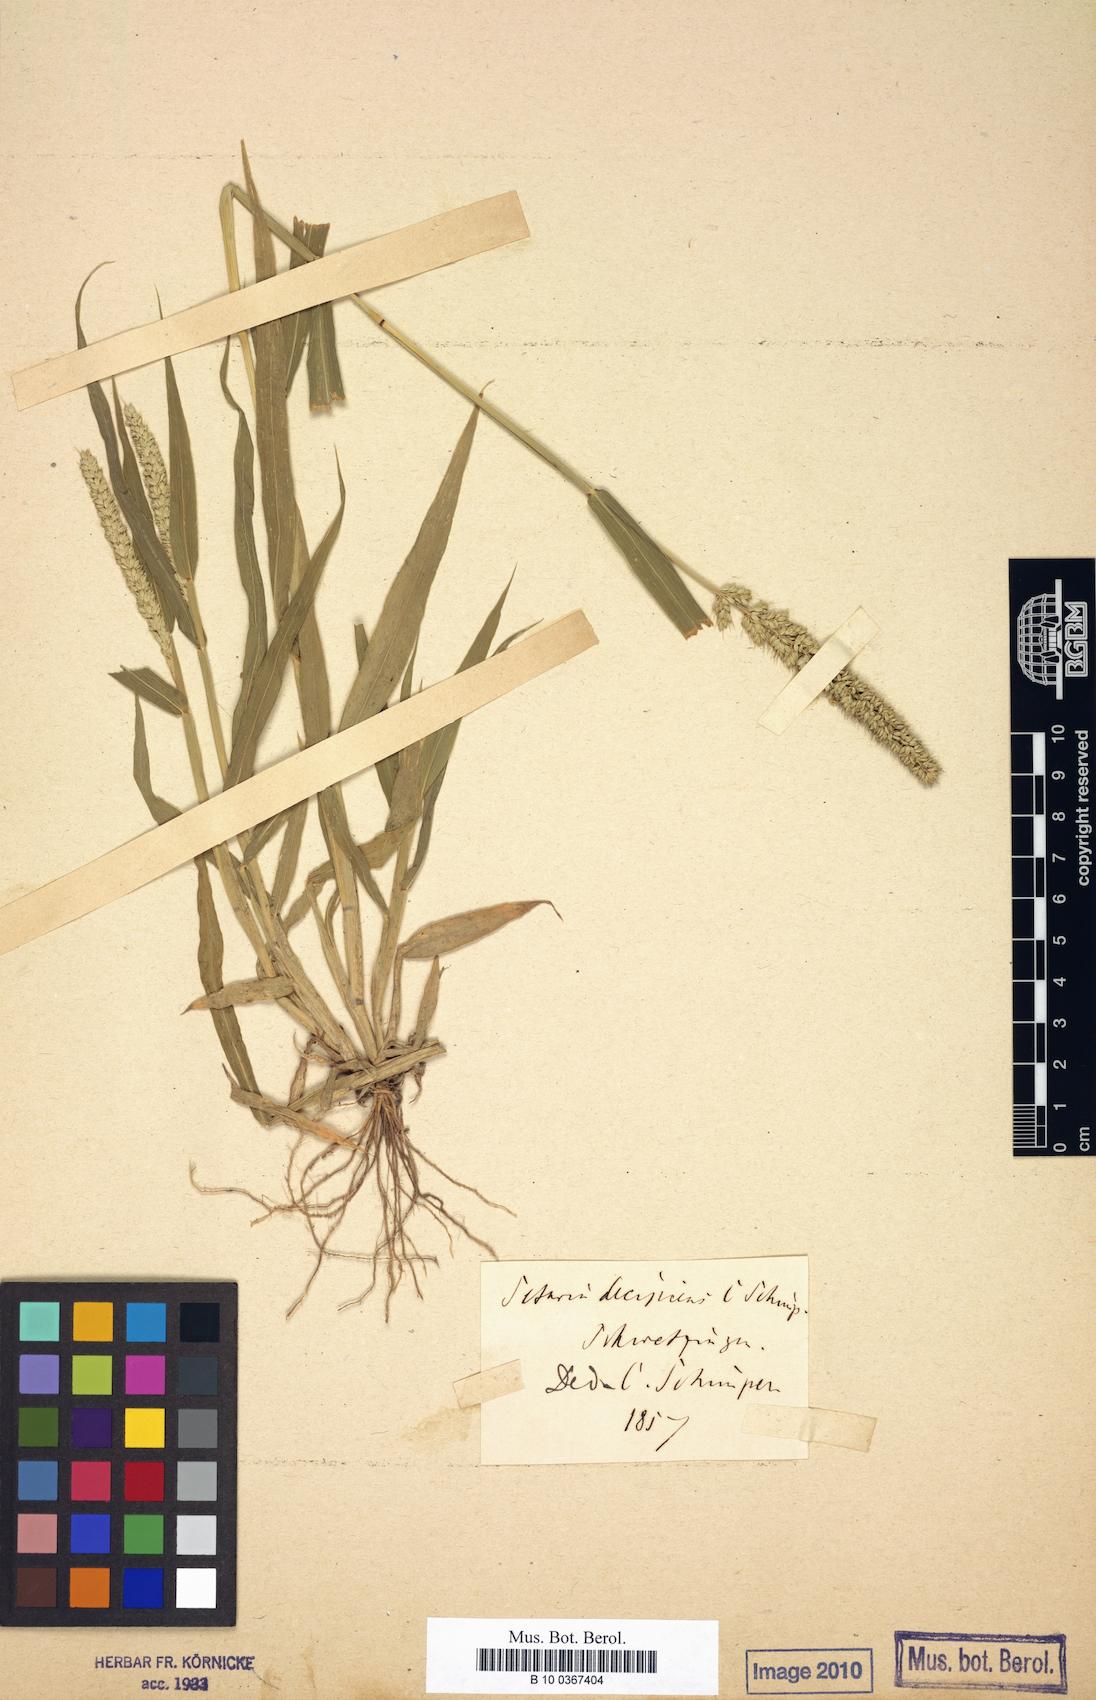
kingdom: Plantae
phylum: Tracheophyta
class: Liliopsida
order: Poales
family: Poaceae
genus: Setaria
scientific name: Setaria verticillata
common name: Hooked bristlegrass
